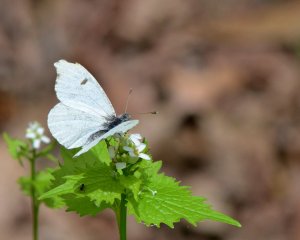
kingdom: Animalia
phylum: Arthropoda
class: Insecta
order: Lepidoptera
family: Pieridae
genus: Anthocharis
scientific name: Anthocharis midea
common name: Falcate Orangetip
